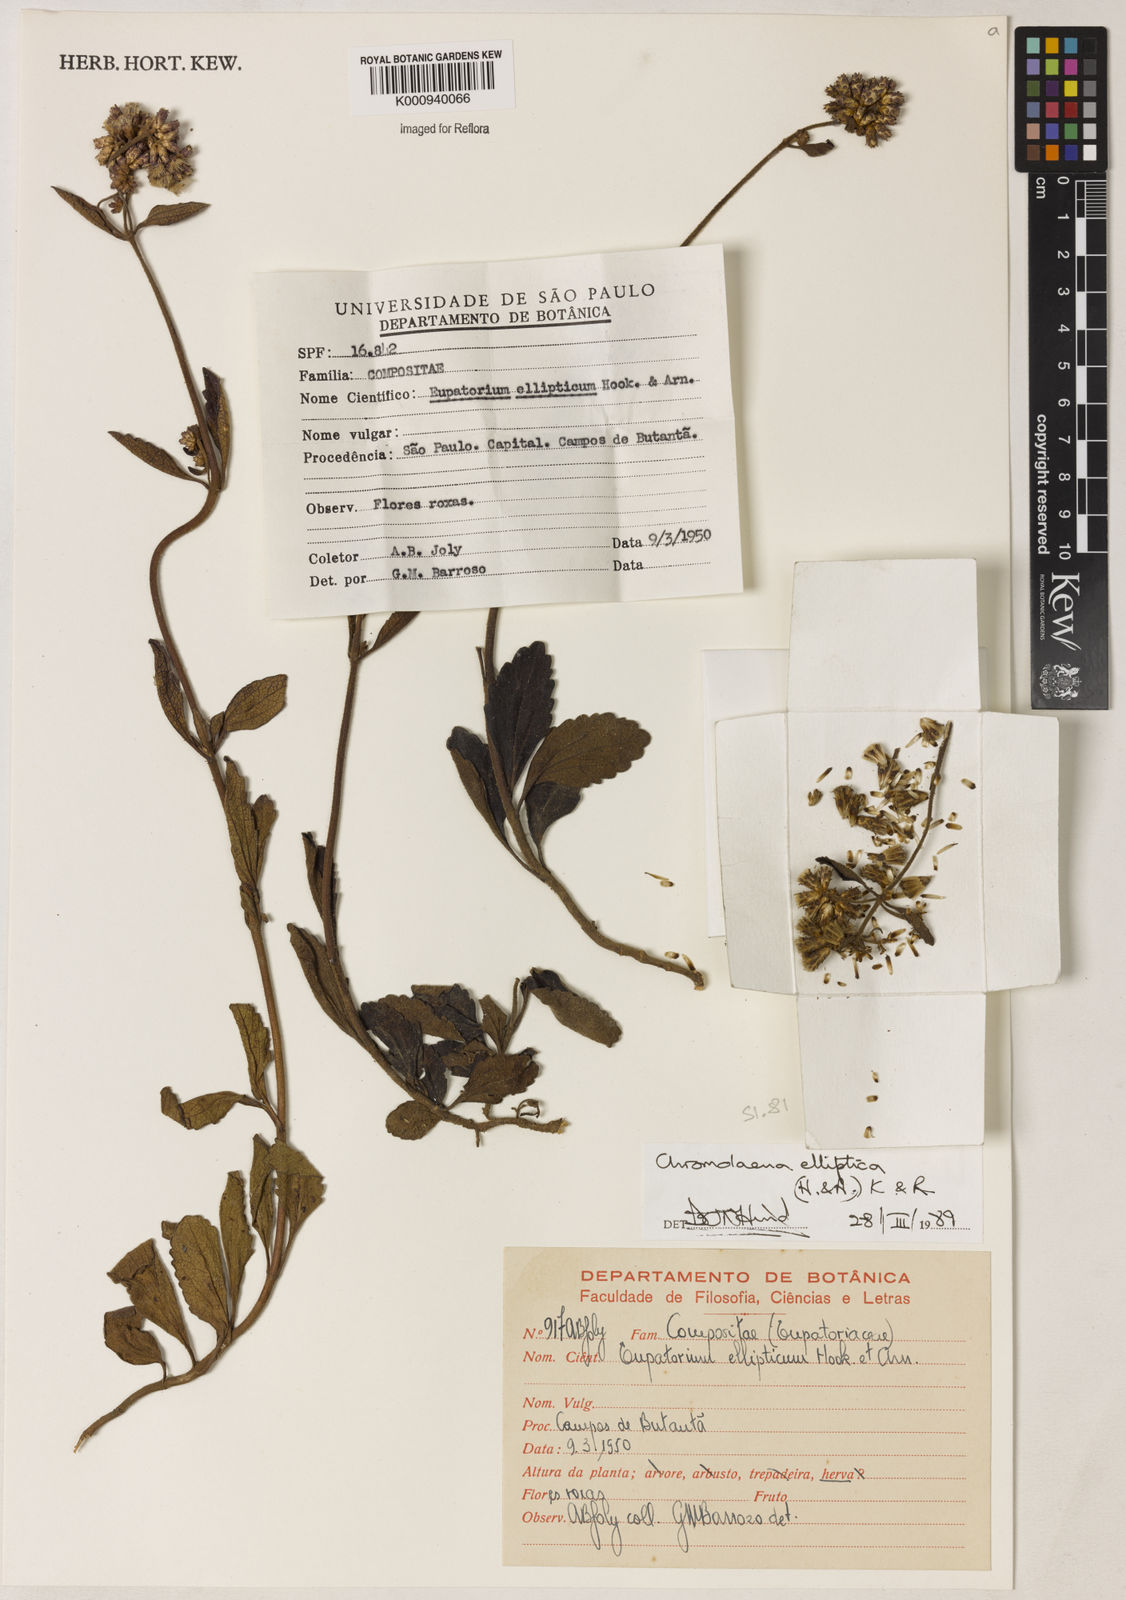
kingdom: Plantae
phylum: Tracheophyta
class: Magnoliopsida
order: Asterales
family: Asteraceae
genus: Chromolaena
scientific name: Chromolaena elliptica
